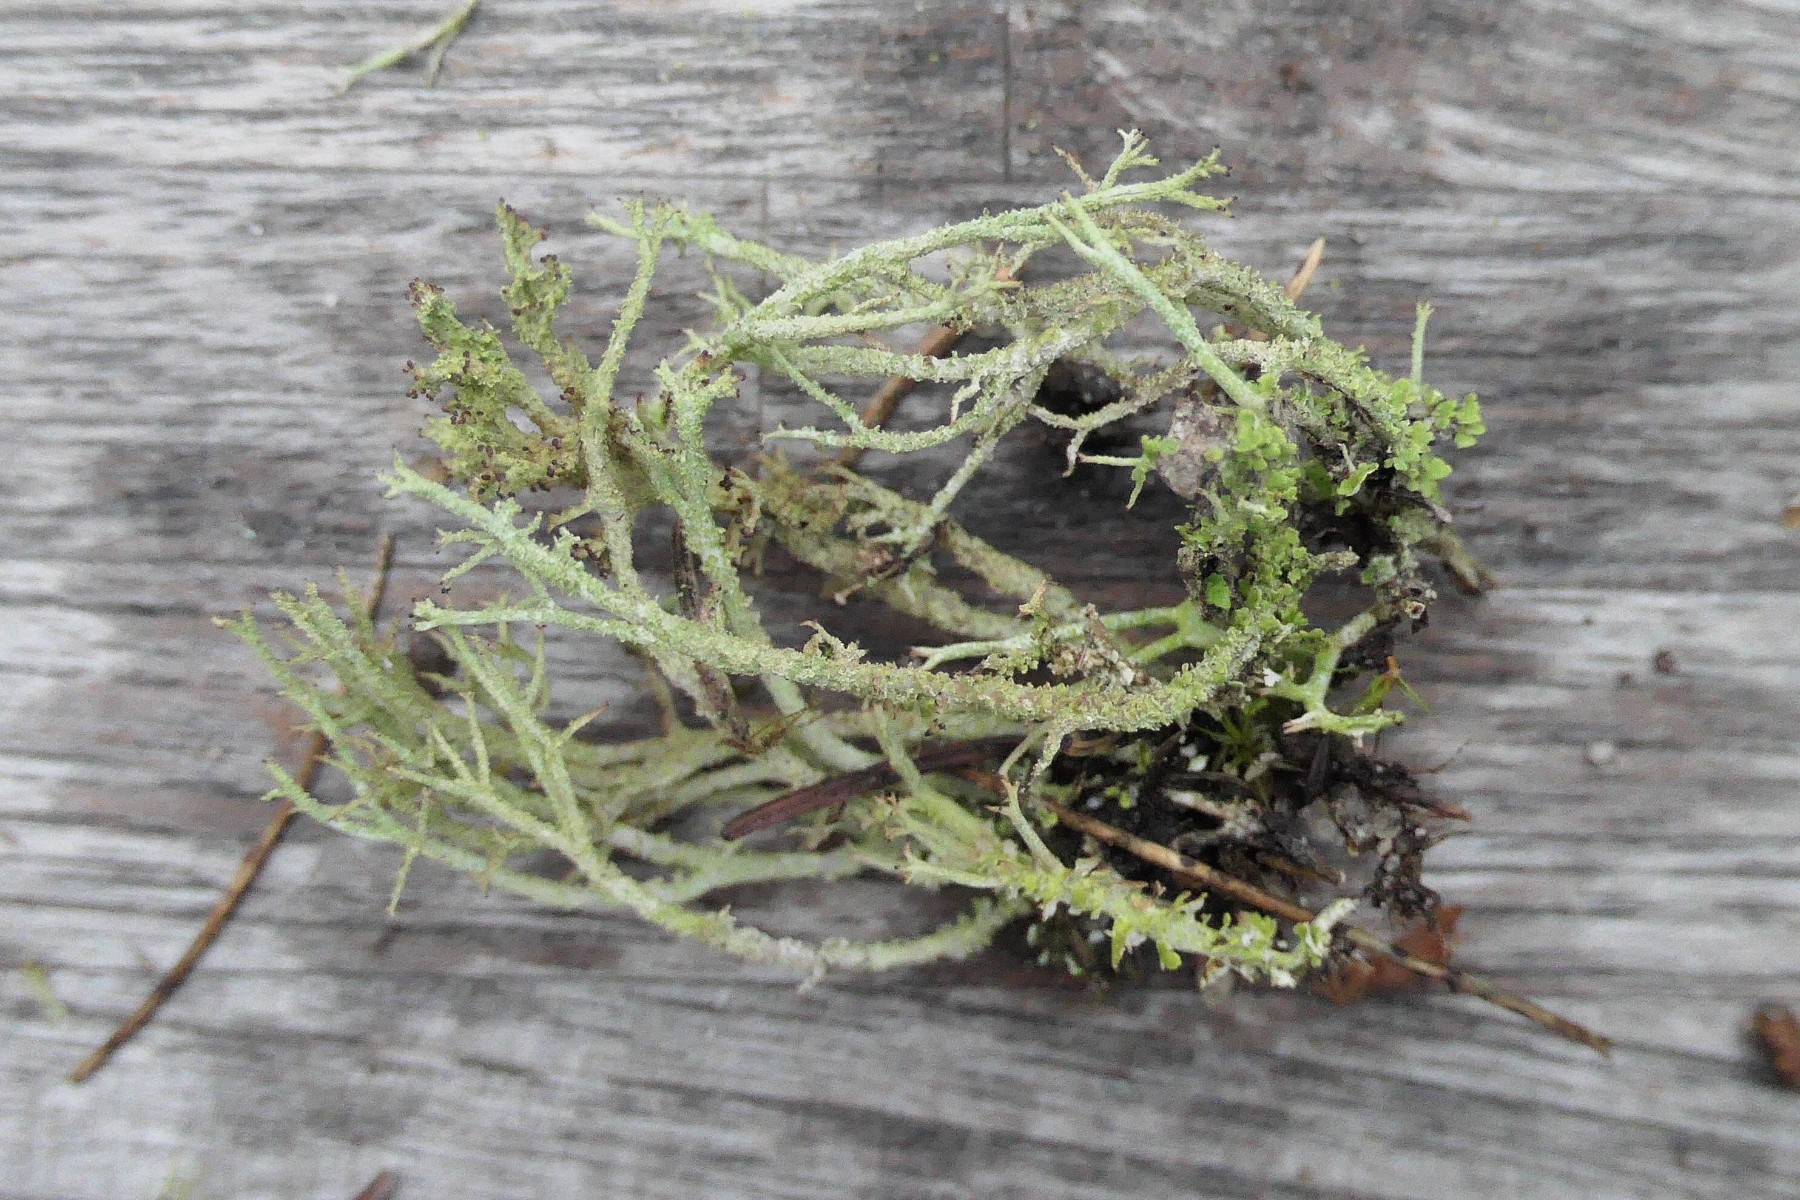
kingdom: Fungi
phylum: Ascomycota
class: Lecanoromycetes
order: Lecanorales
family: Cladoniaceae
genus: Cladonia
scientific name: Cladonia scabriuscula
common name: ru bægerlav
